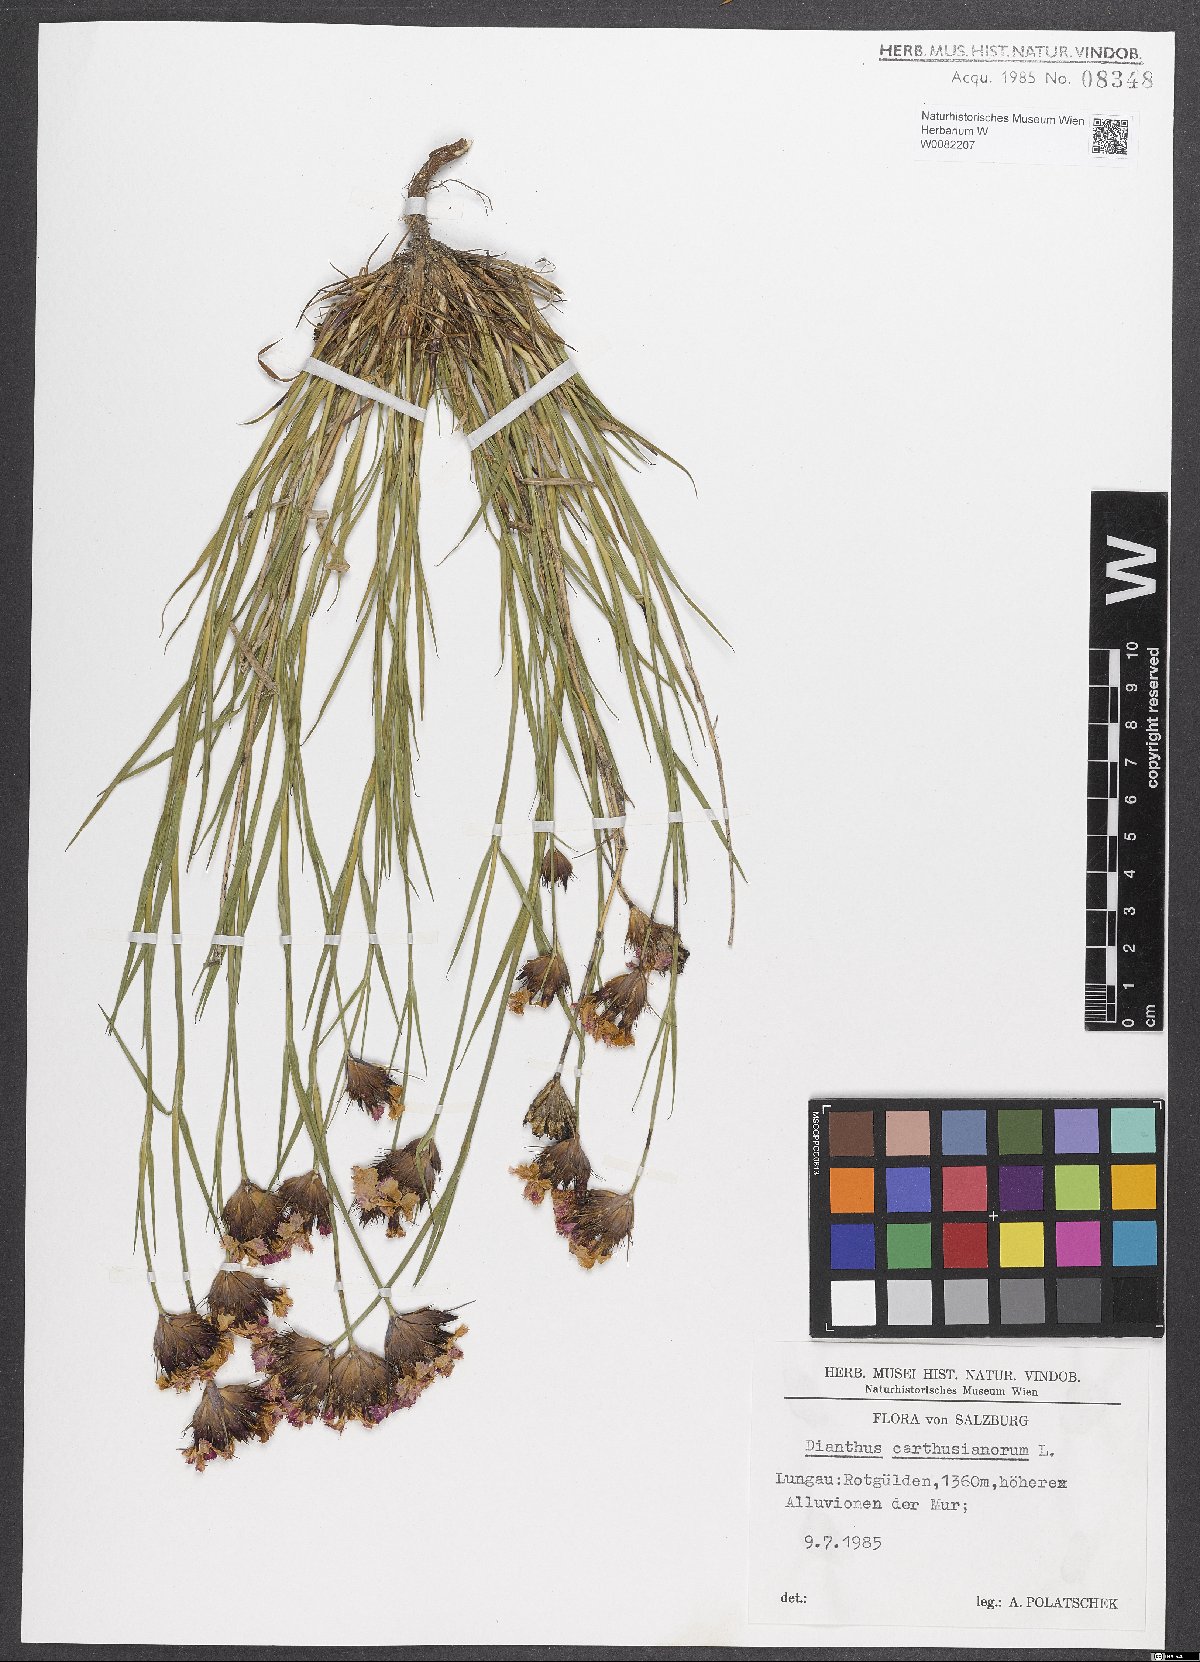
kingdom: Plantae
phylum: Tracheophyta
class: Magnoliopsida
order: Caryophyllales
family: Caryophyllaceae
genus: Dianthus
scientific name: Dianthus carthusianorum
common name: Carthusian pink
